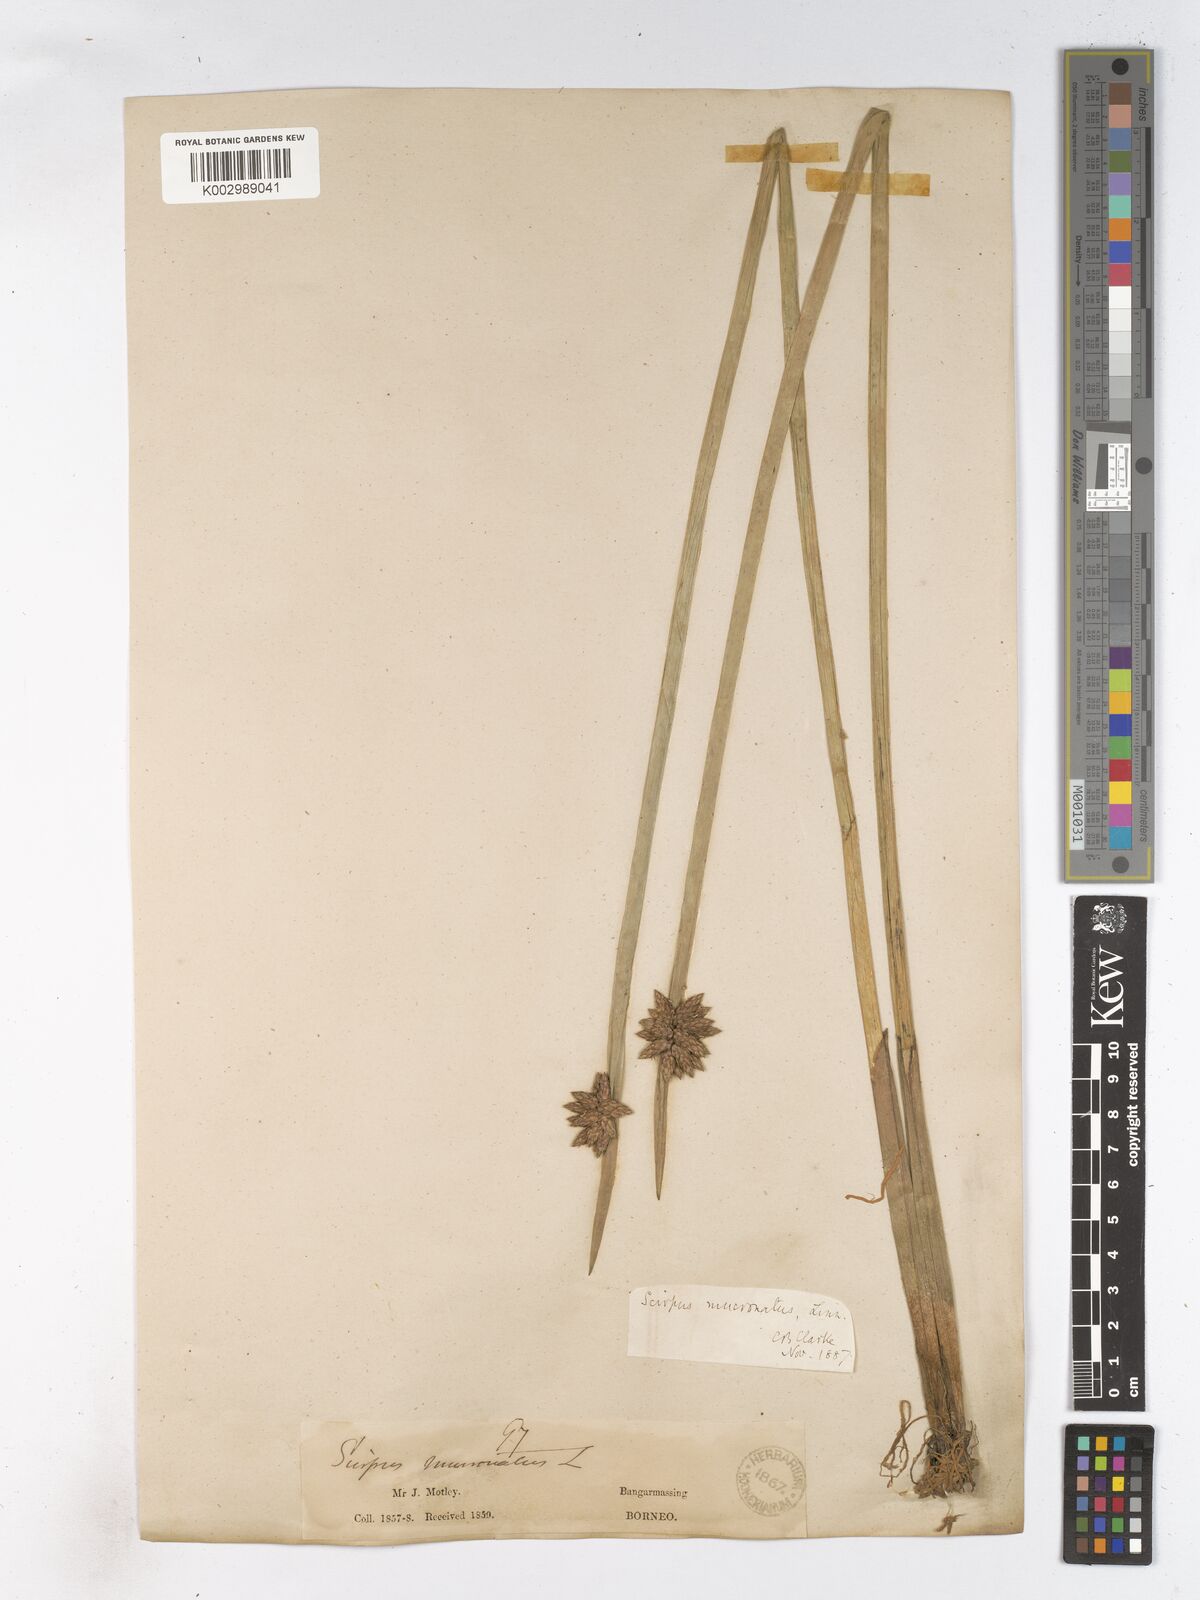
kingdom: Plantae
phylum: Tracheophyta
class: Liliopsida
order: Poales
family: Cyperaceae
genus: Schoenoplectiella
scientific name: Schoenoplectiella mucronata
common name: Bog bulrush
